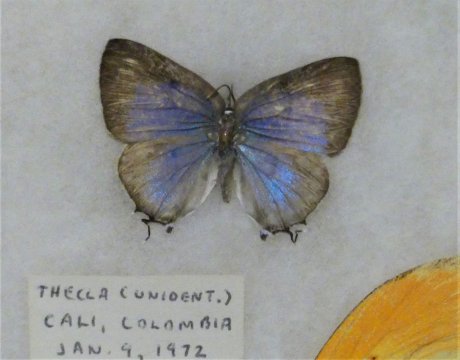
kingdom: Animalia
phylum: Arthropoda
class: Insecta
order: Lepidoptera
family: Lycaenidae
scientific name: Lycaenidae
